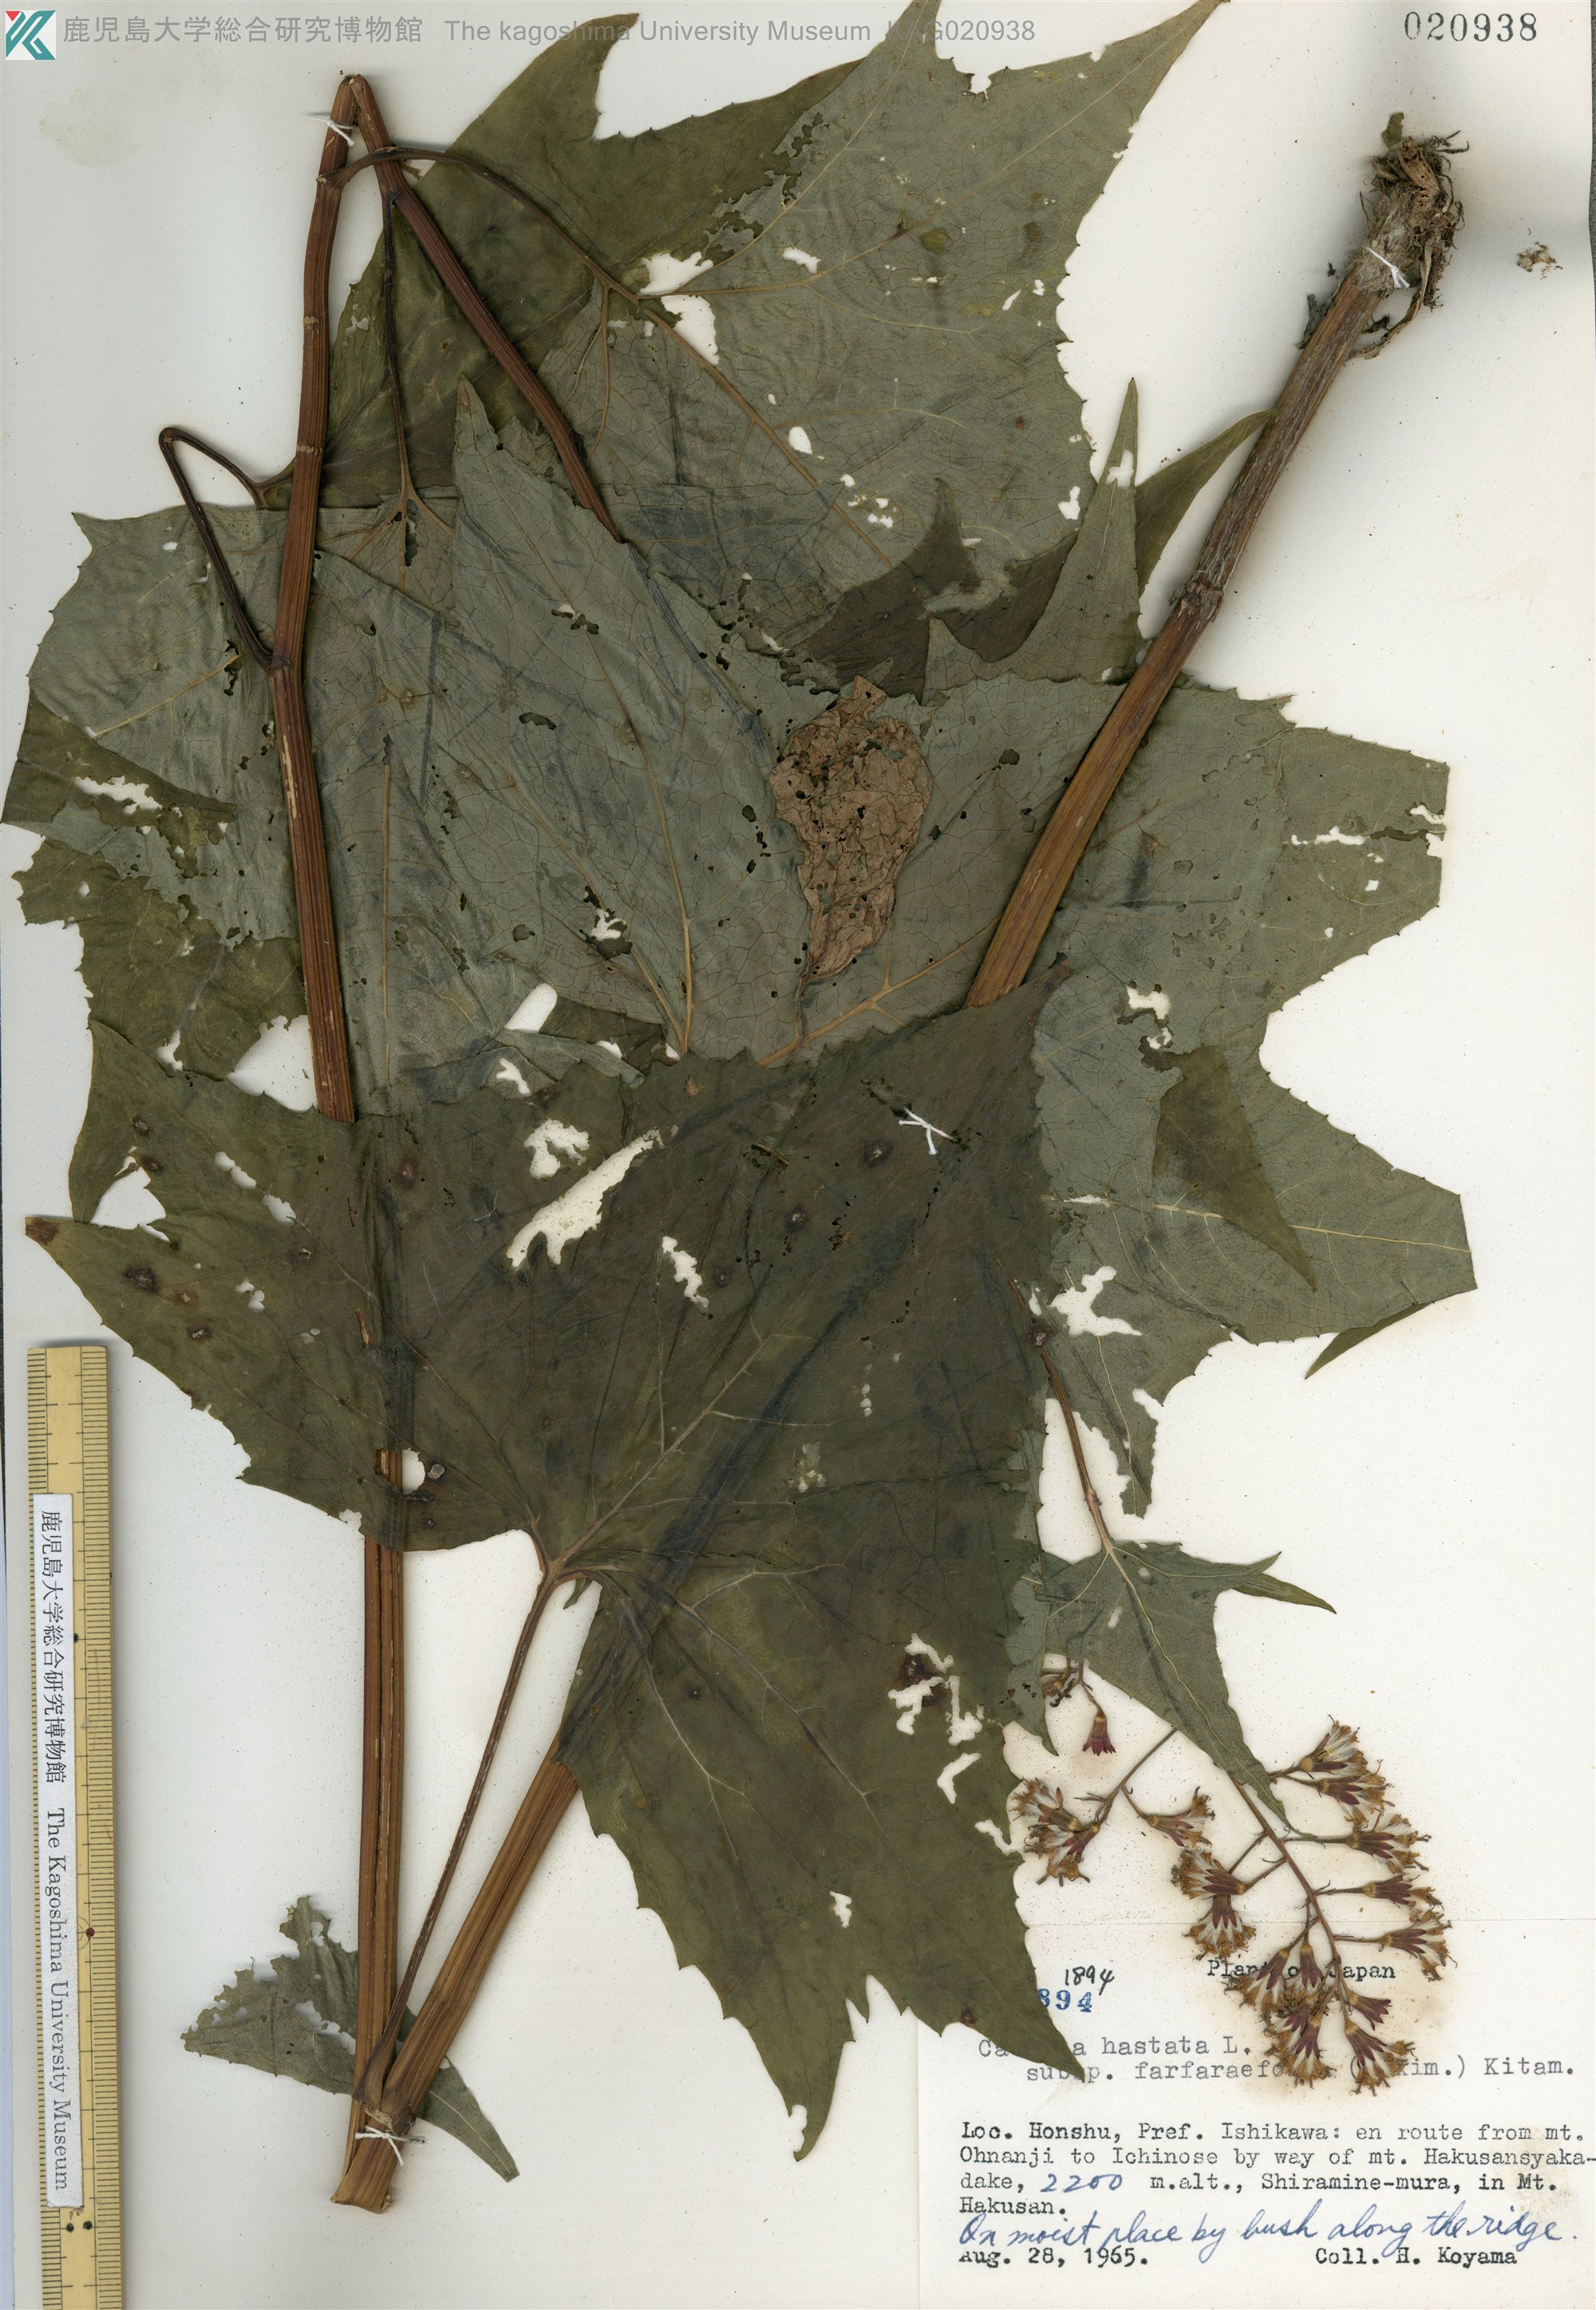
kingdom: Plantae
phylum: Tracheophyta
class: Magnoliopsida
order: Asterales
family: Asteraceae
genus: Parasenecio
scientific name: Parasenecio maximowicziana
